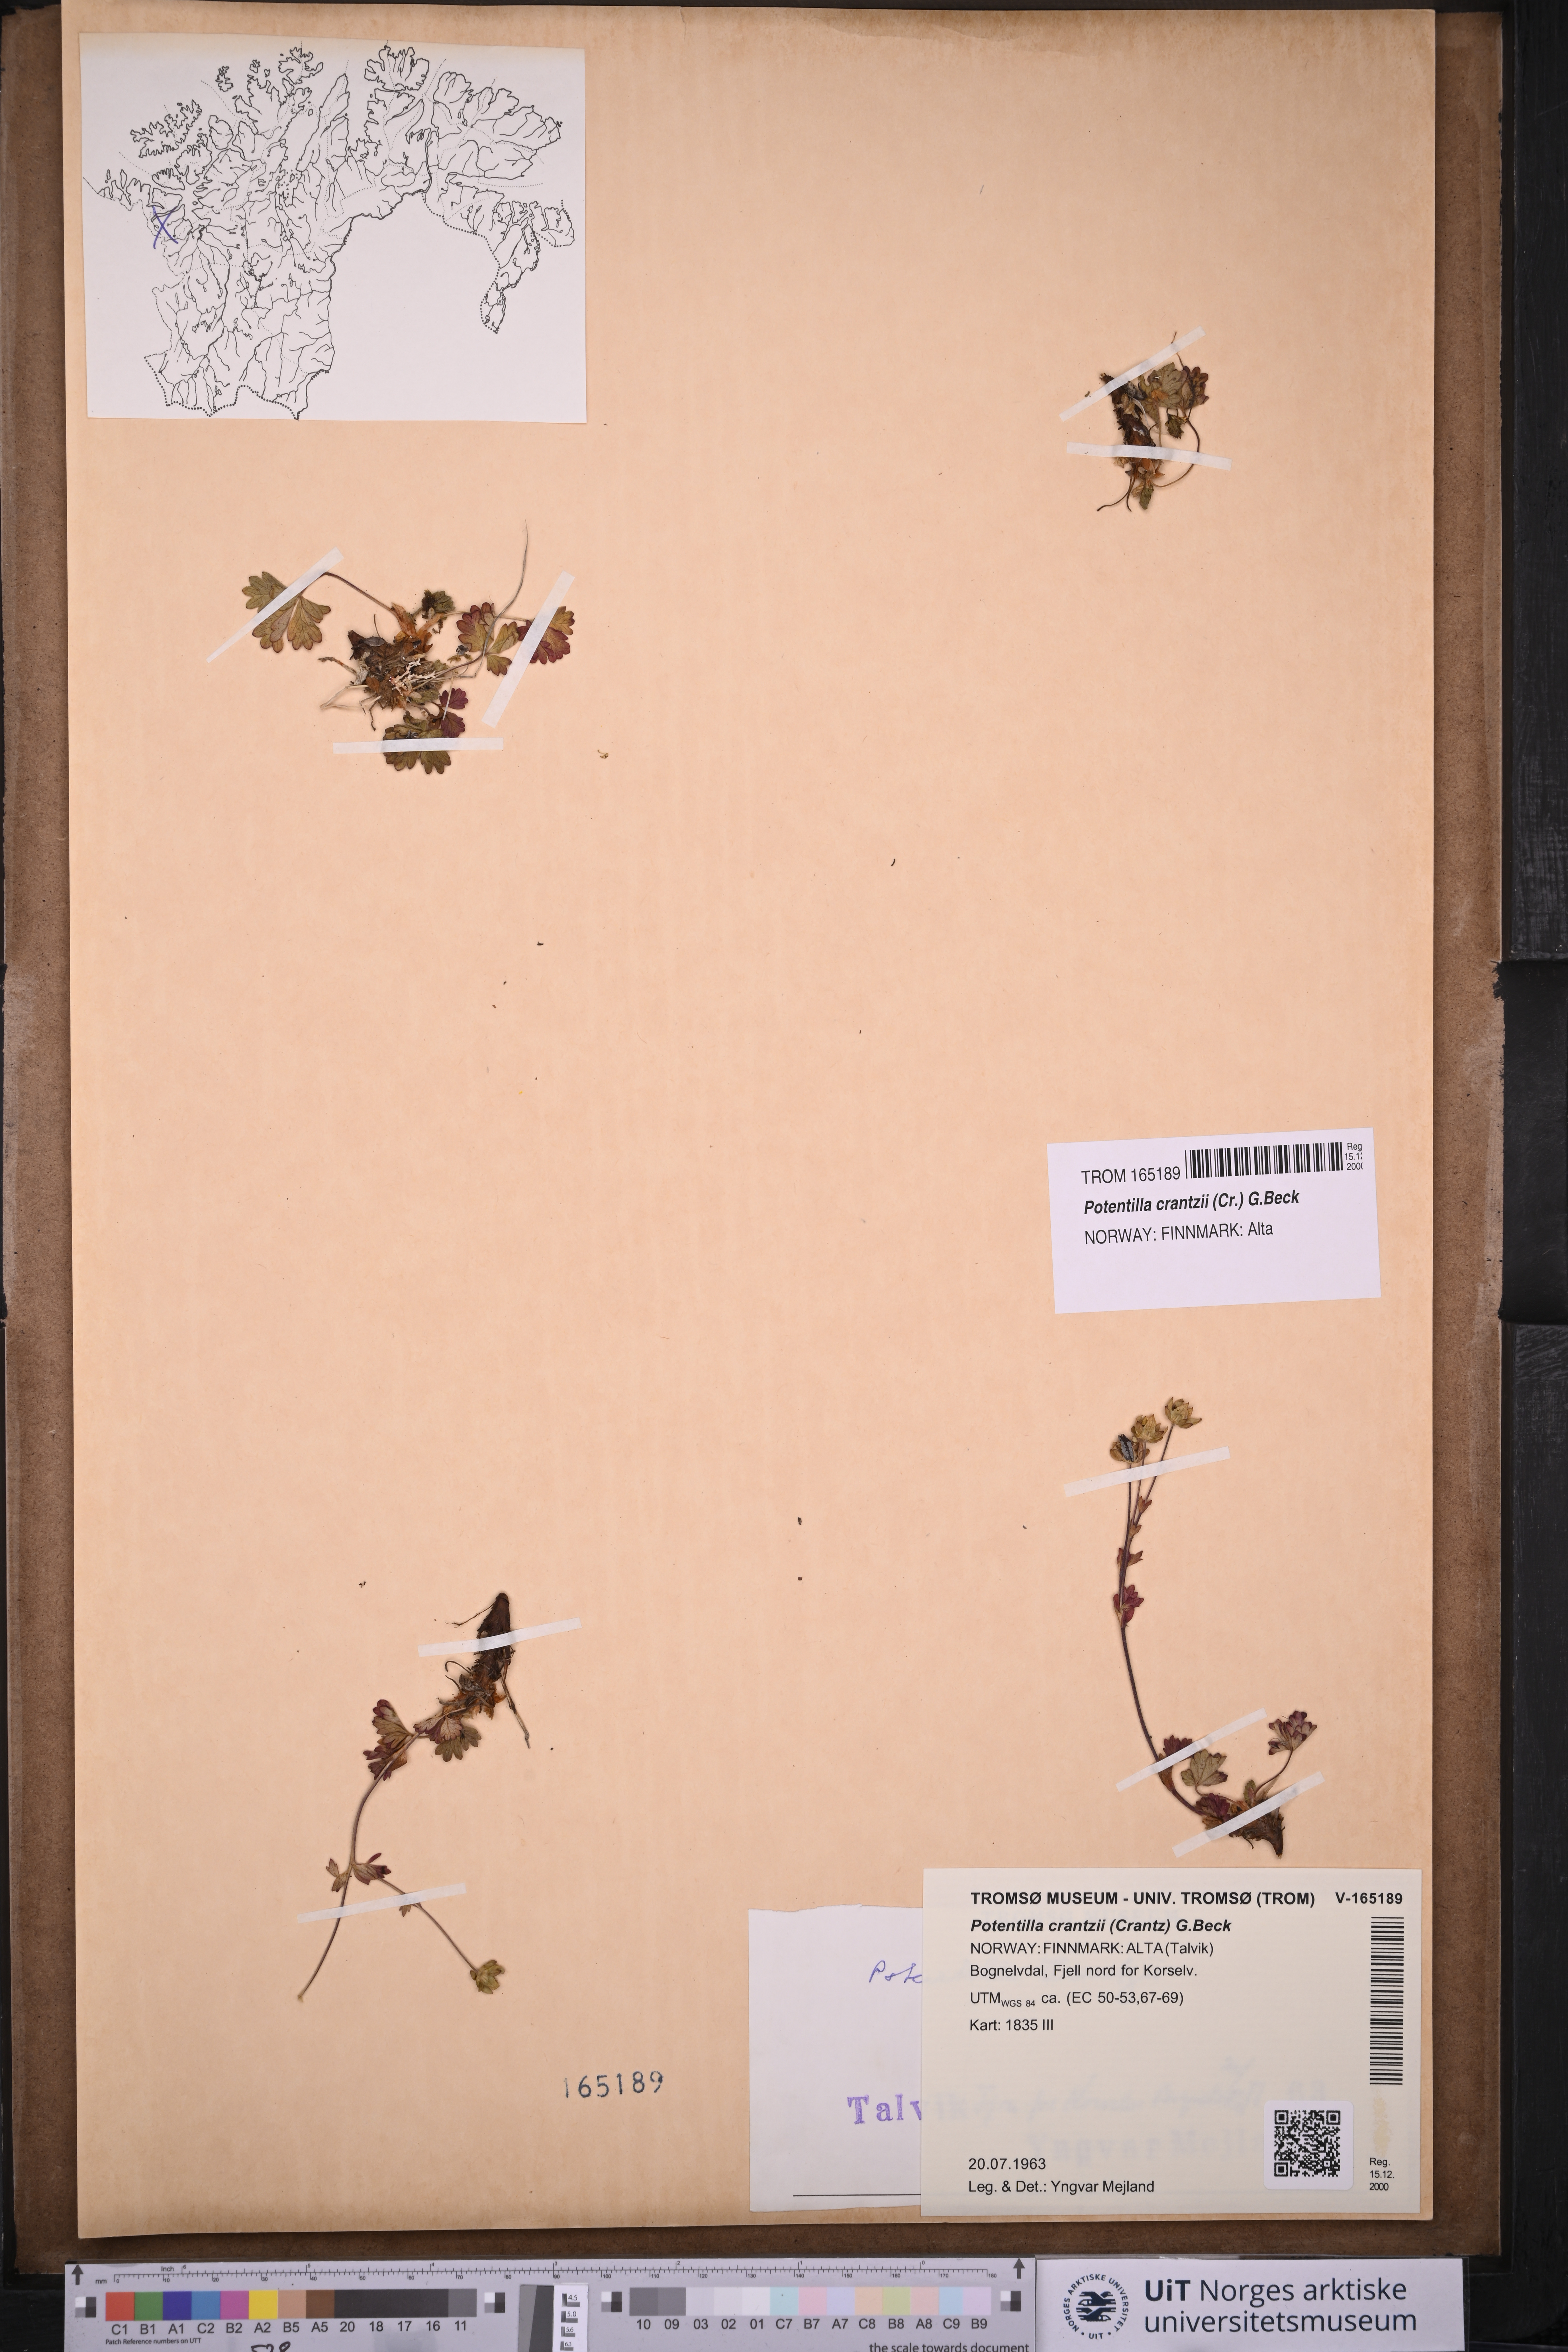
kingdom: Plantae
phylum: Tracheophyta
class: Magnoliopsida
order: Rosales
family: Rosaceae
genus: Potentilla
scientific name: Potentilla crantzii
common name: Alpine cinquefoil
